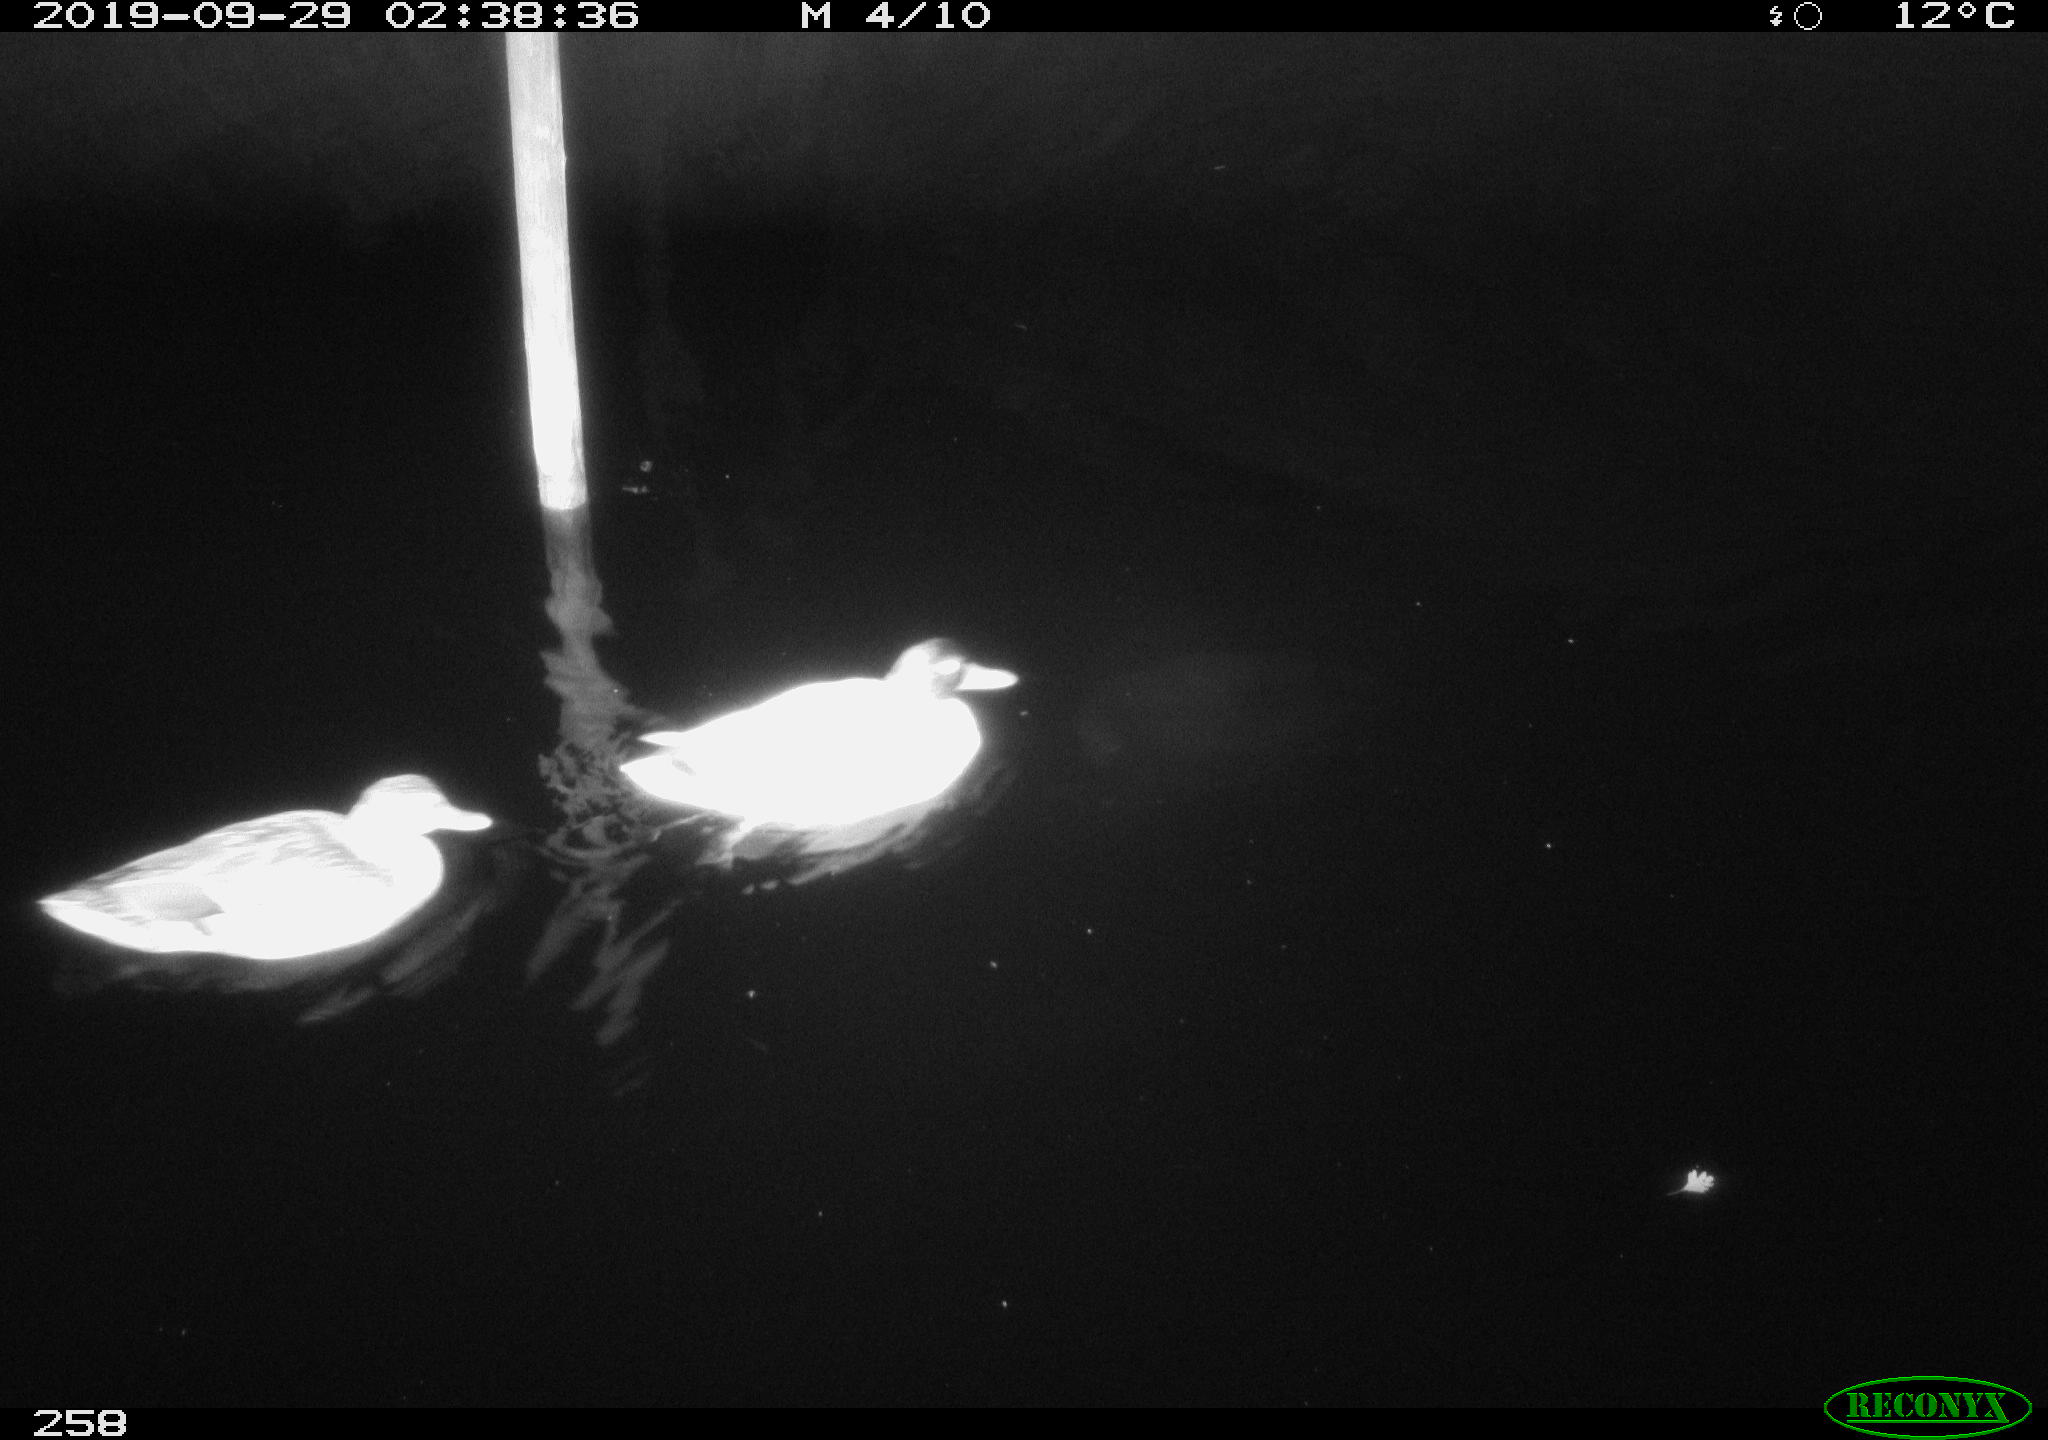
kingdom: Animalia
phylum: Chordata
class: Aves
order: Anseriformes
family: Anatidae
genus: Anas
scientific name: Anas platyrhynchos
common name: Mallard
